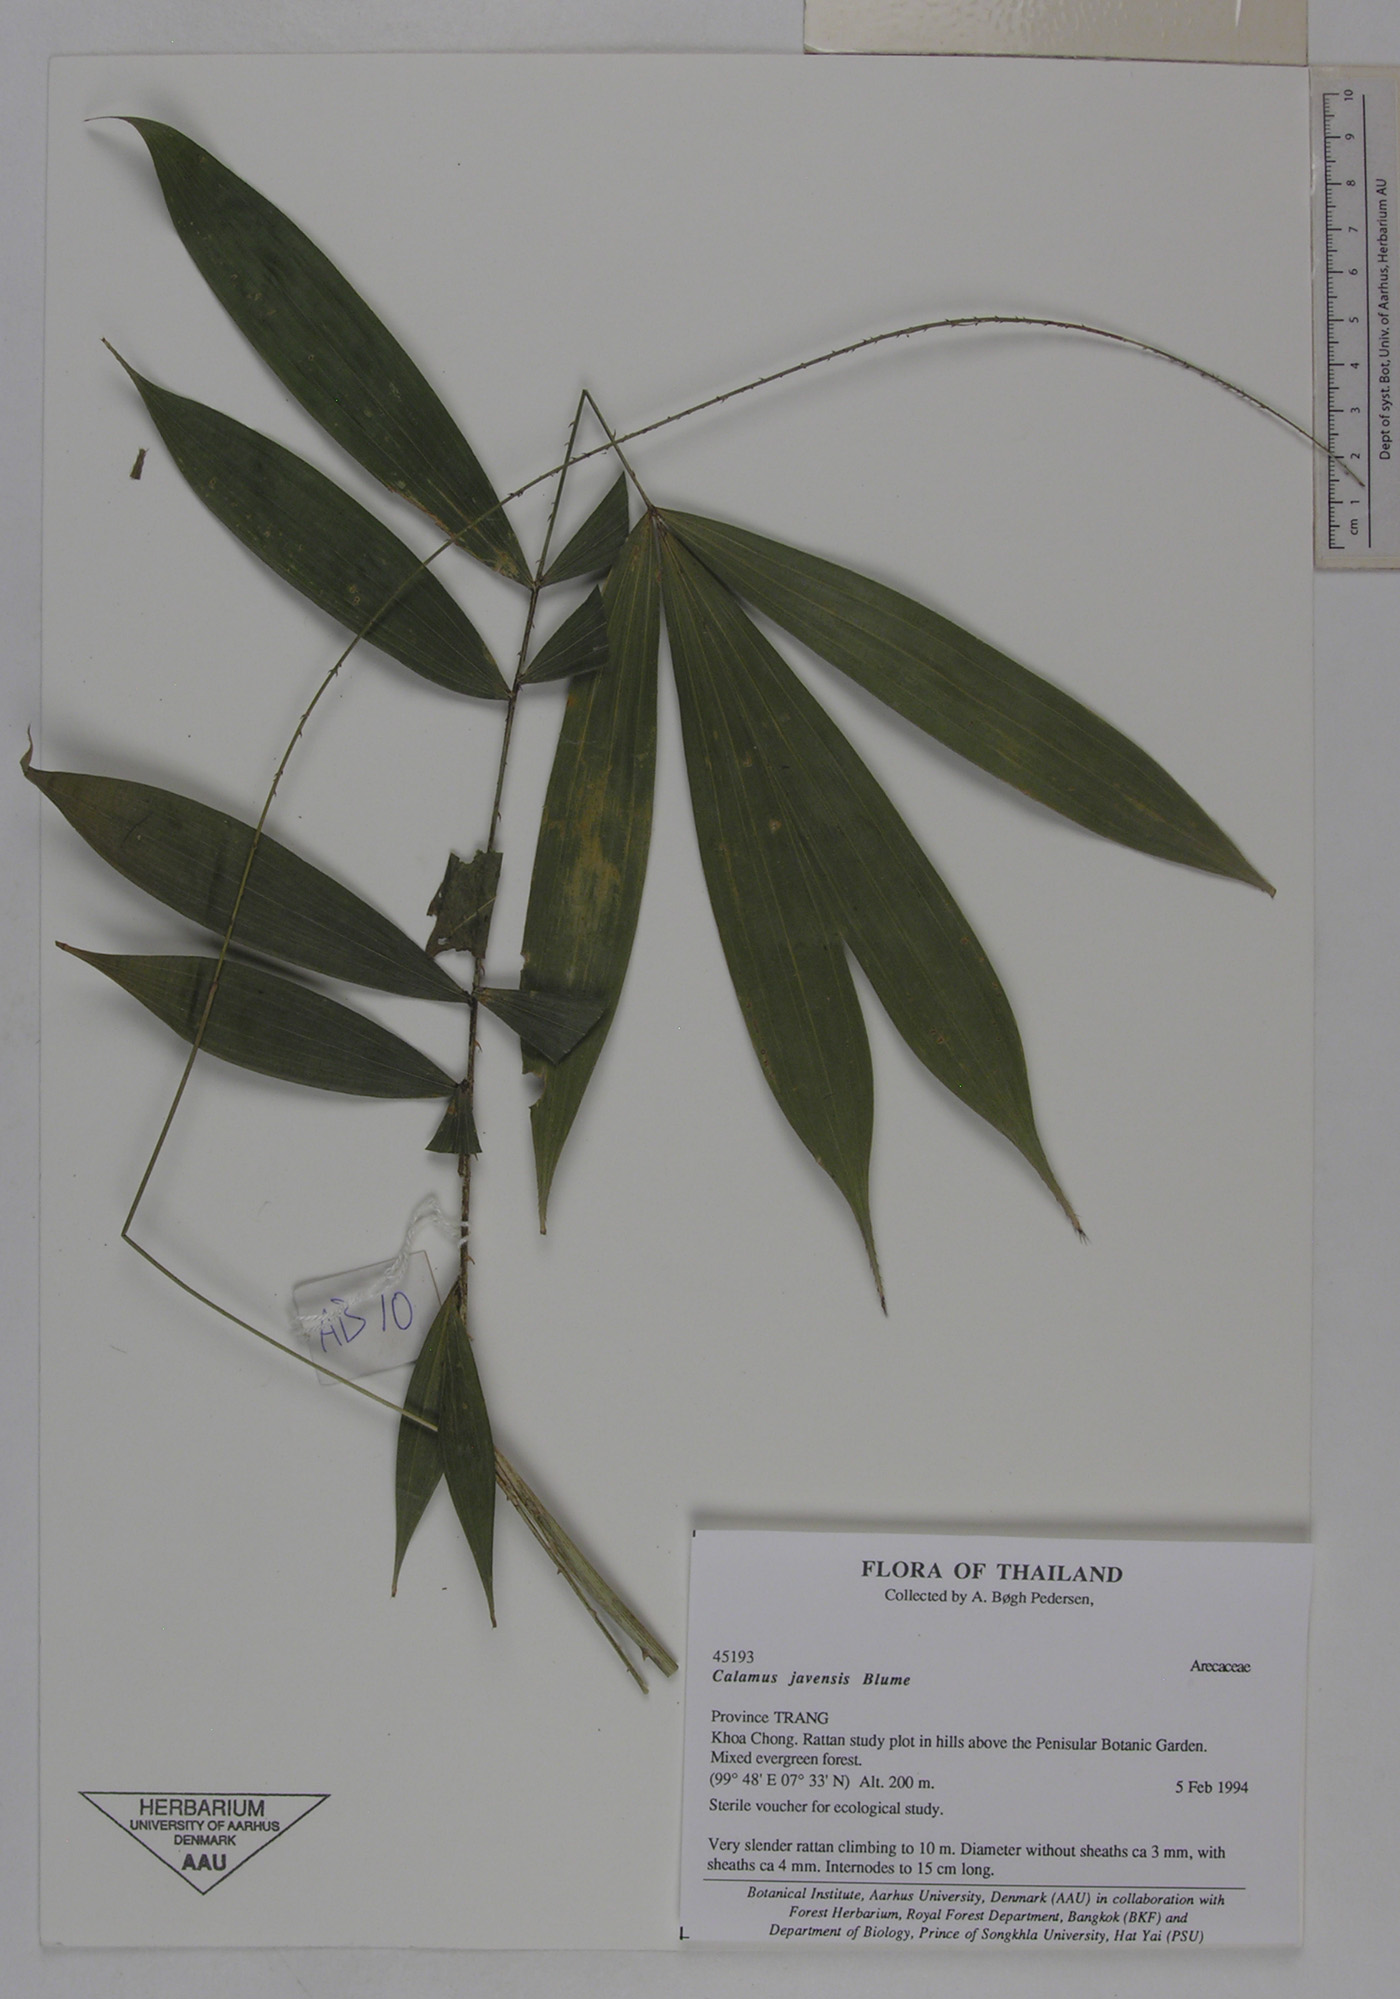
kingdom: Plantae
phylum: Tracheophyta
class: Liliopsida
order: Arecales
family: Arecaceae
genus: Calamus
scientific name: Calamus javensis
